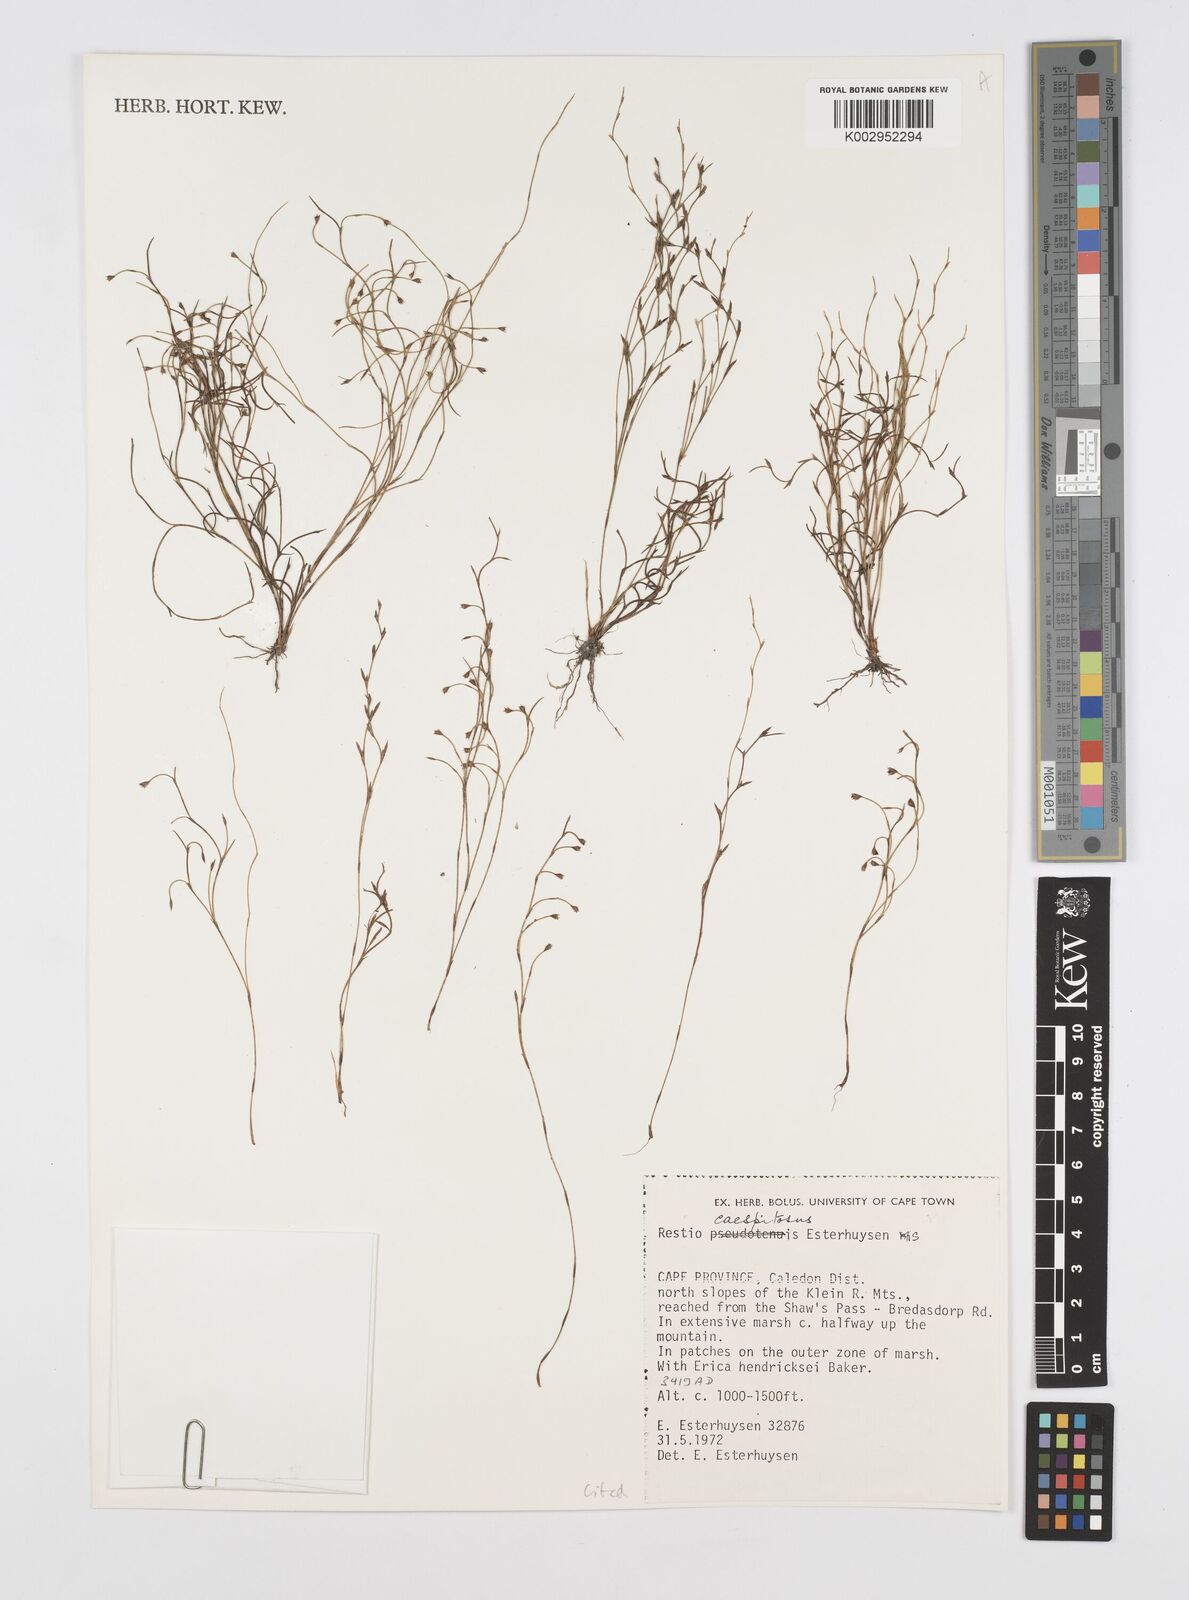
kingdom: Plantae
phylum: Tracheophyta
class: Liliopsida
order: Poales
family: Restionaceae
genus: Restio
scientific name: Restio caespitosus
